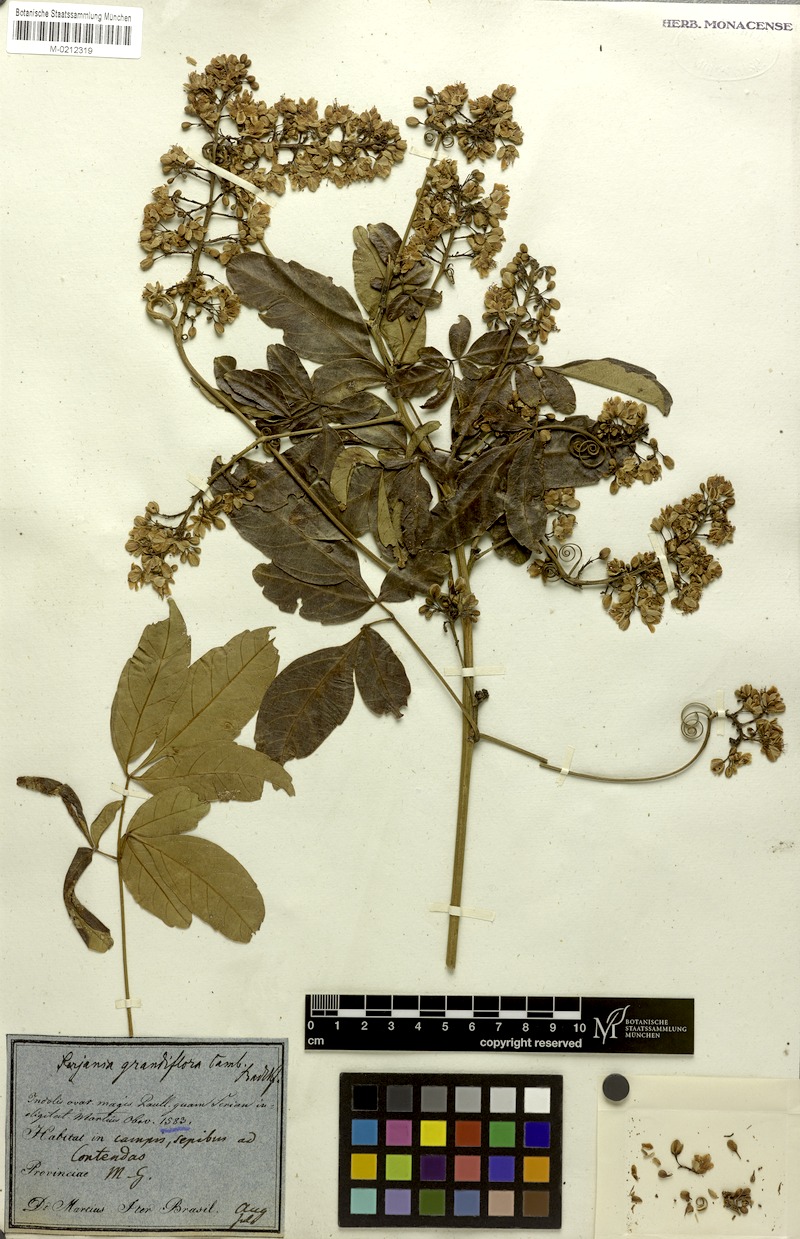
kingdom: Plantae
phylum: Tracheophyta
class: Magnoliopsida
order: Sapindales
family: Sapindaceae
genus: Serjania
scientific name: Serjania caracasana
